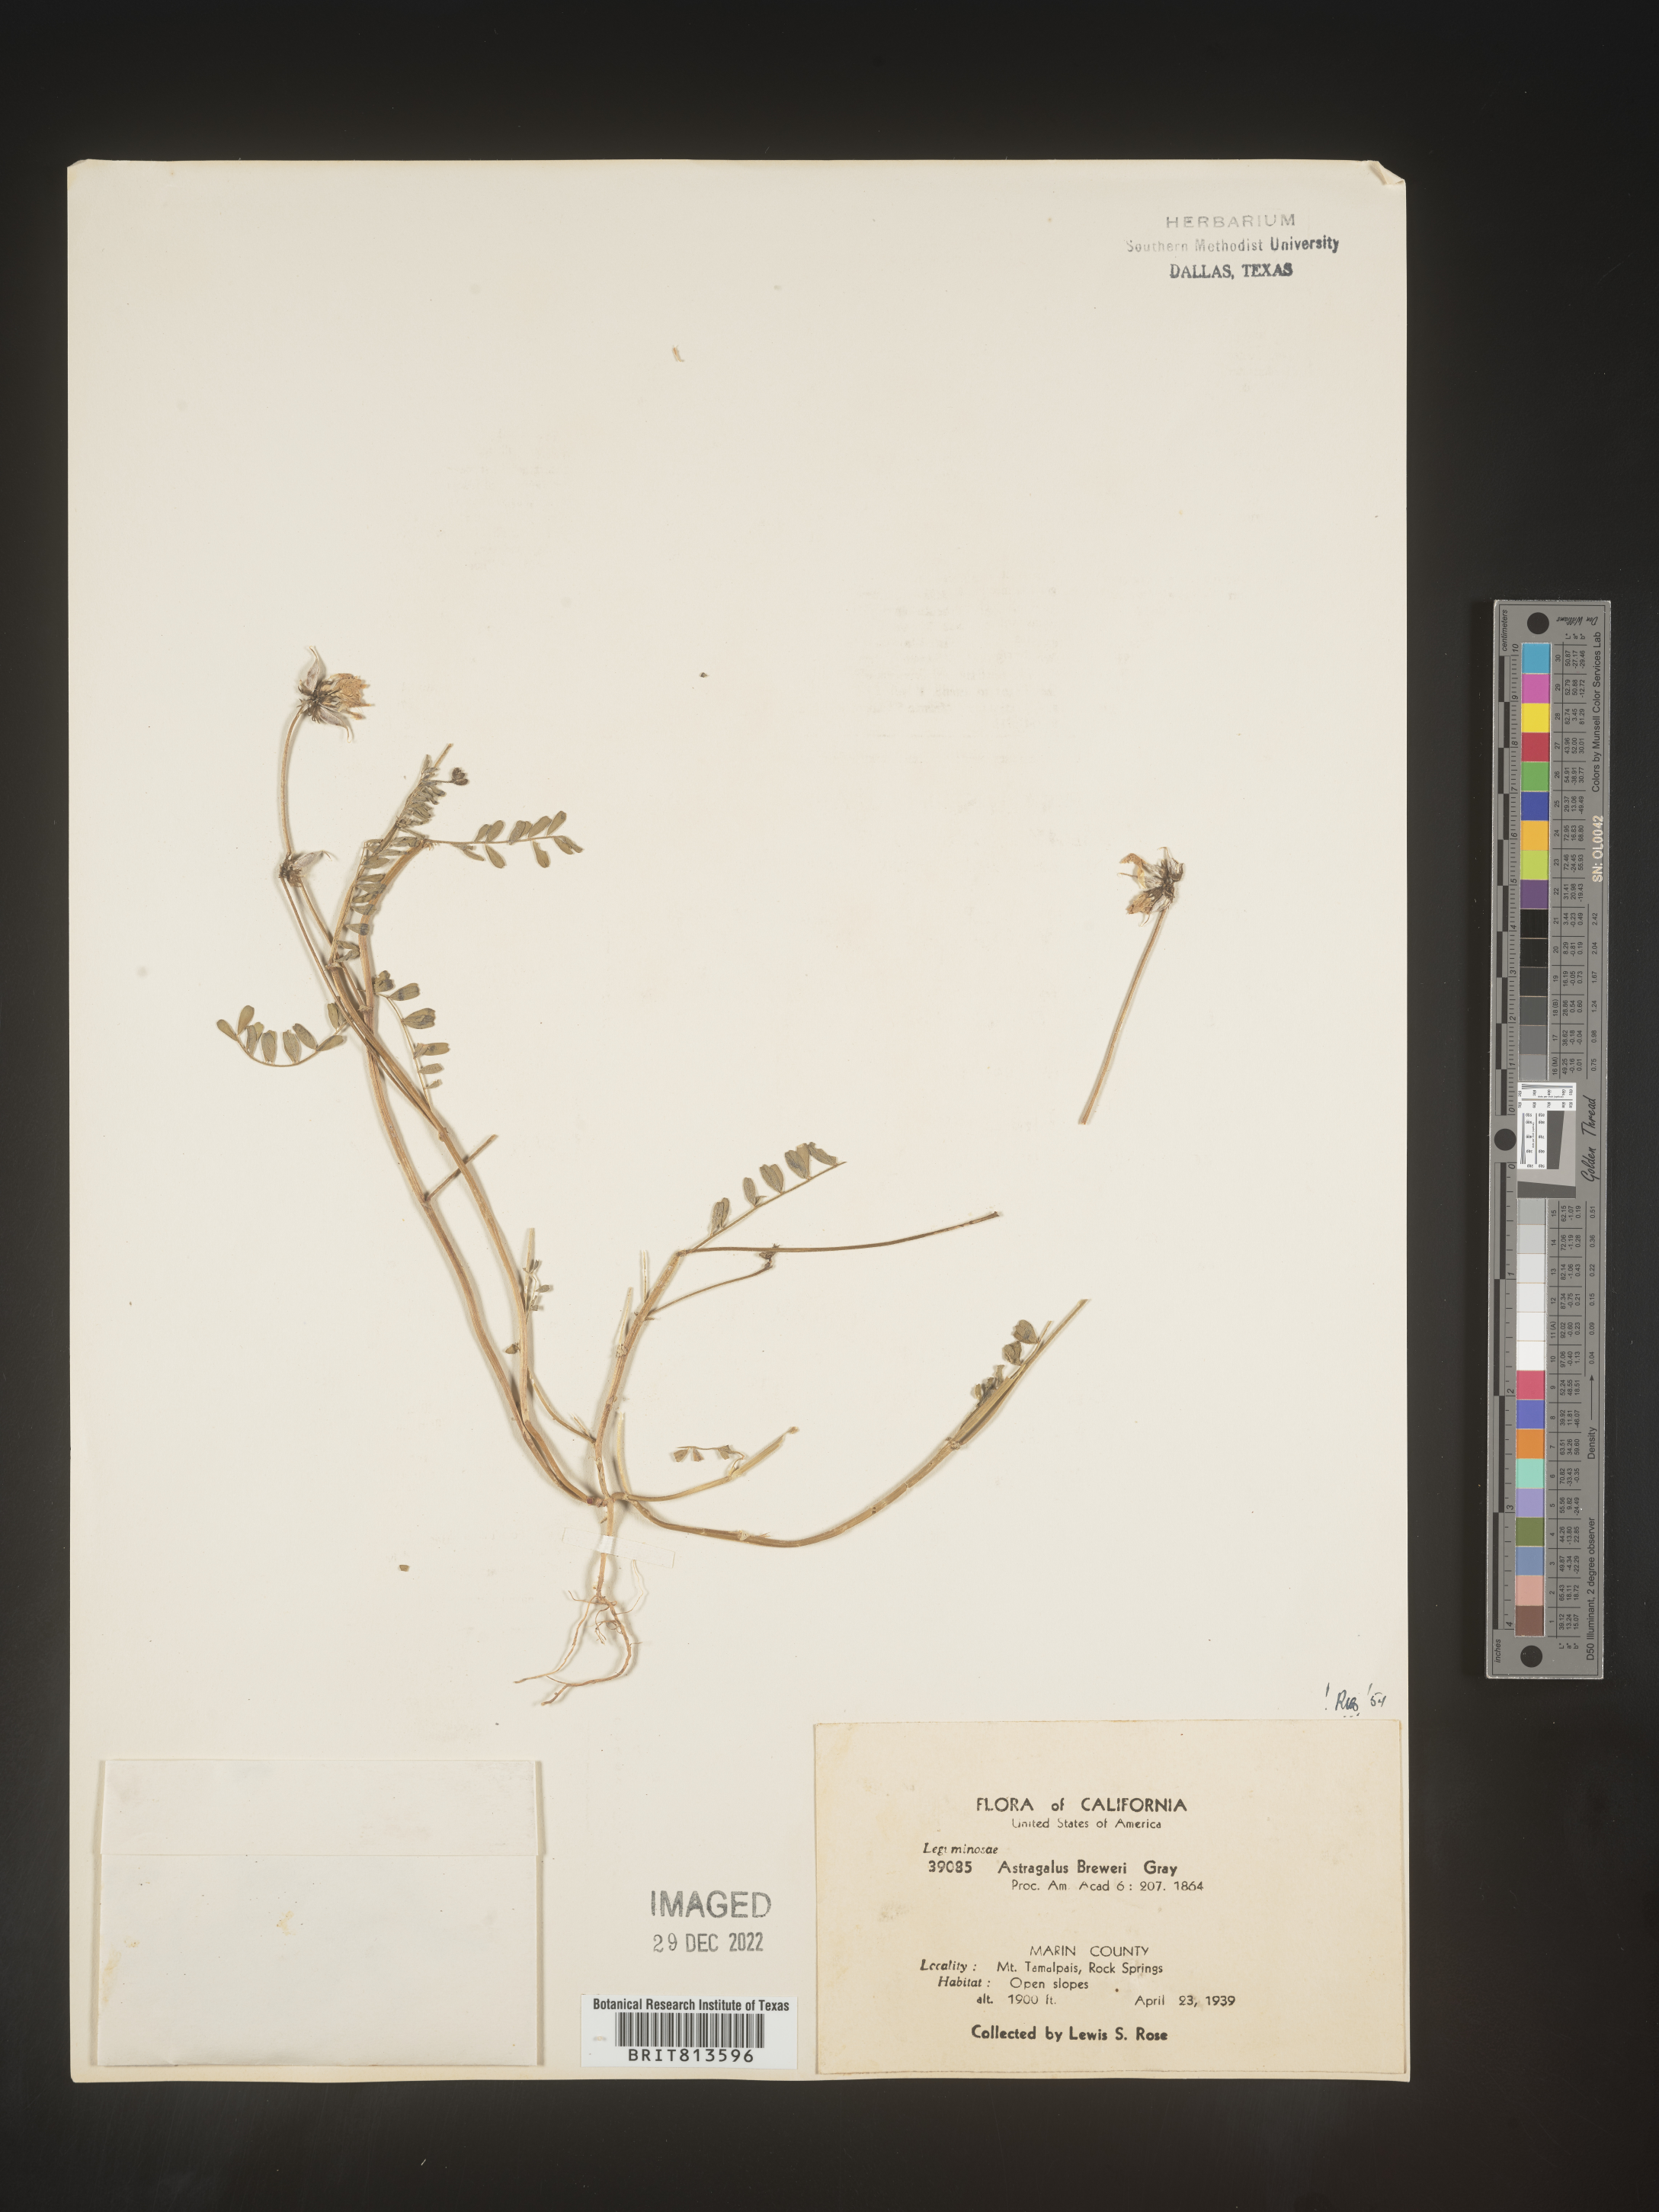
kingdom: Plantae
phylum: Tracheophyta
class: Magnoliopsida
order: Fabales
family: Fabaceae
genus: Astragalus
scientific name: Astragalus
